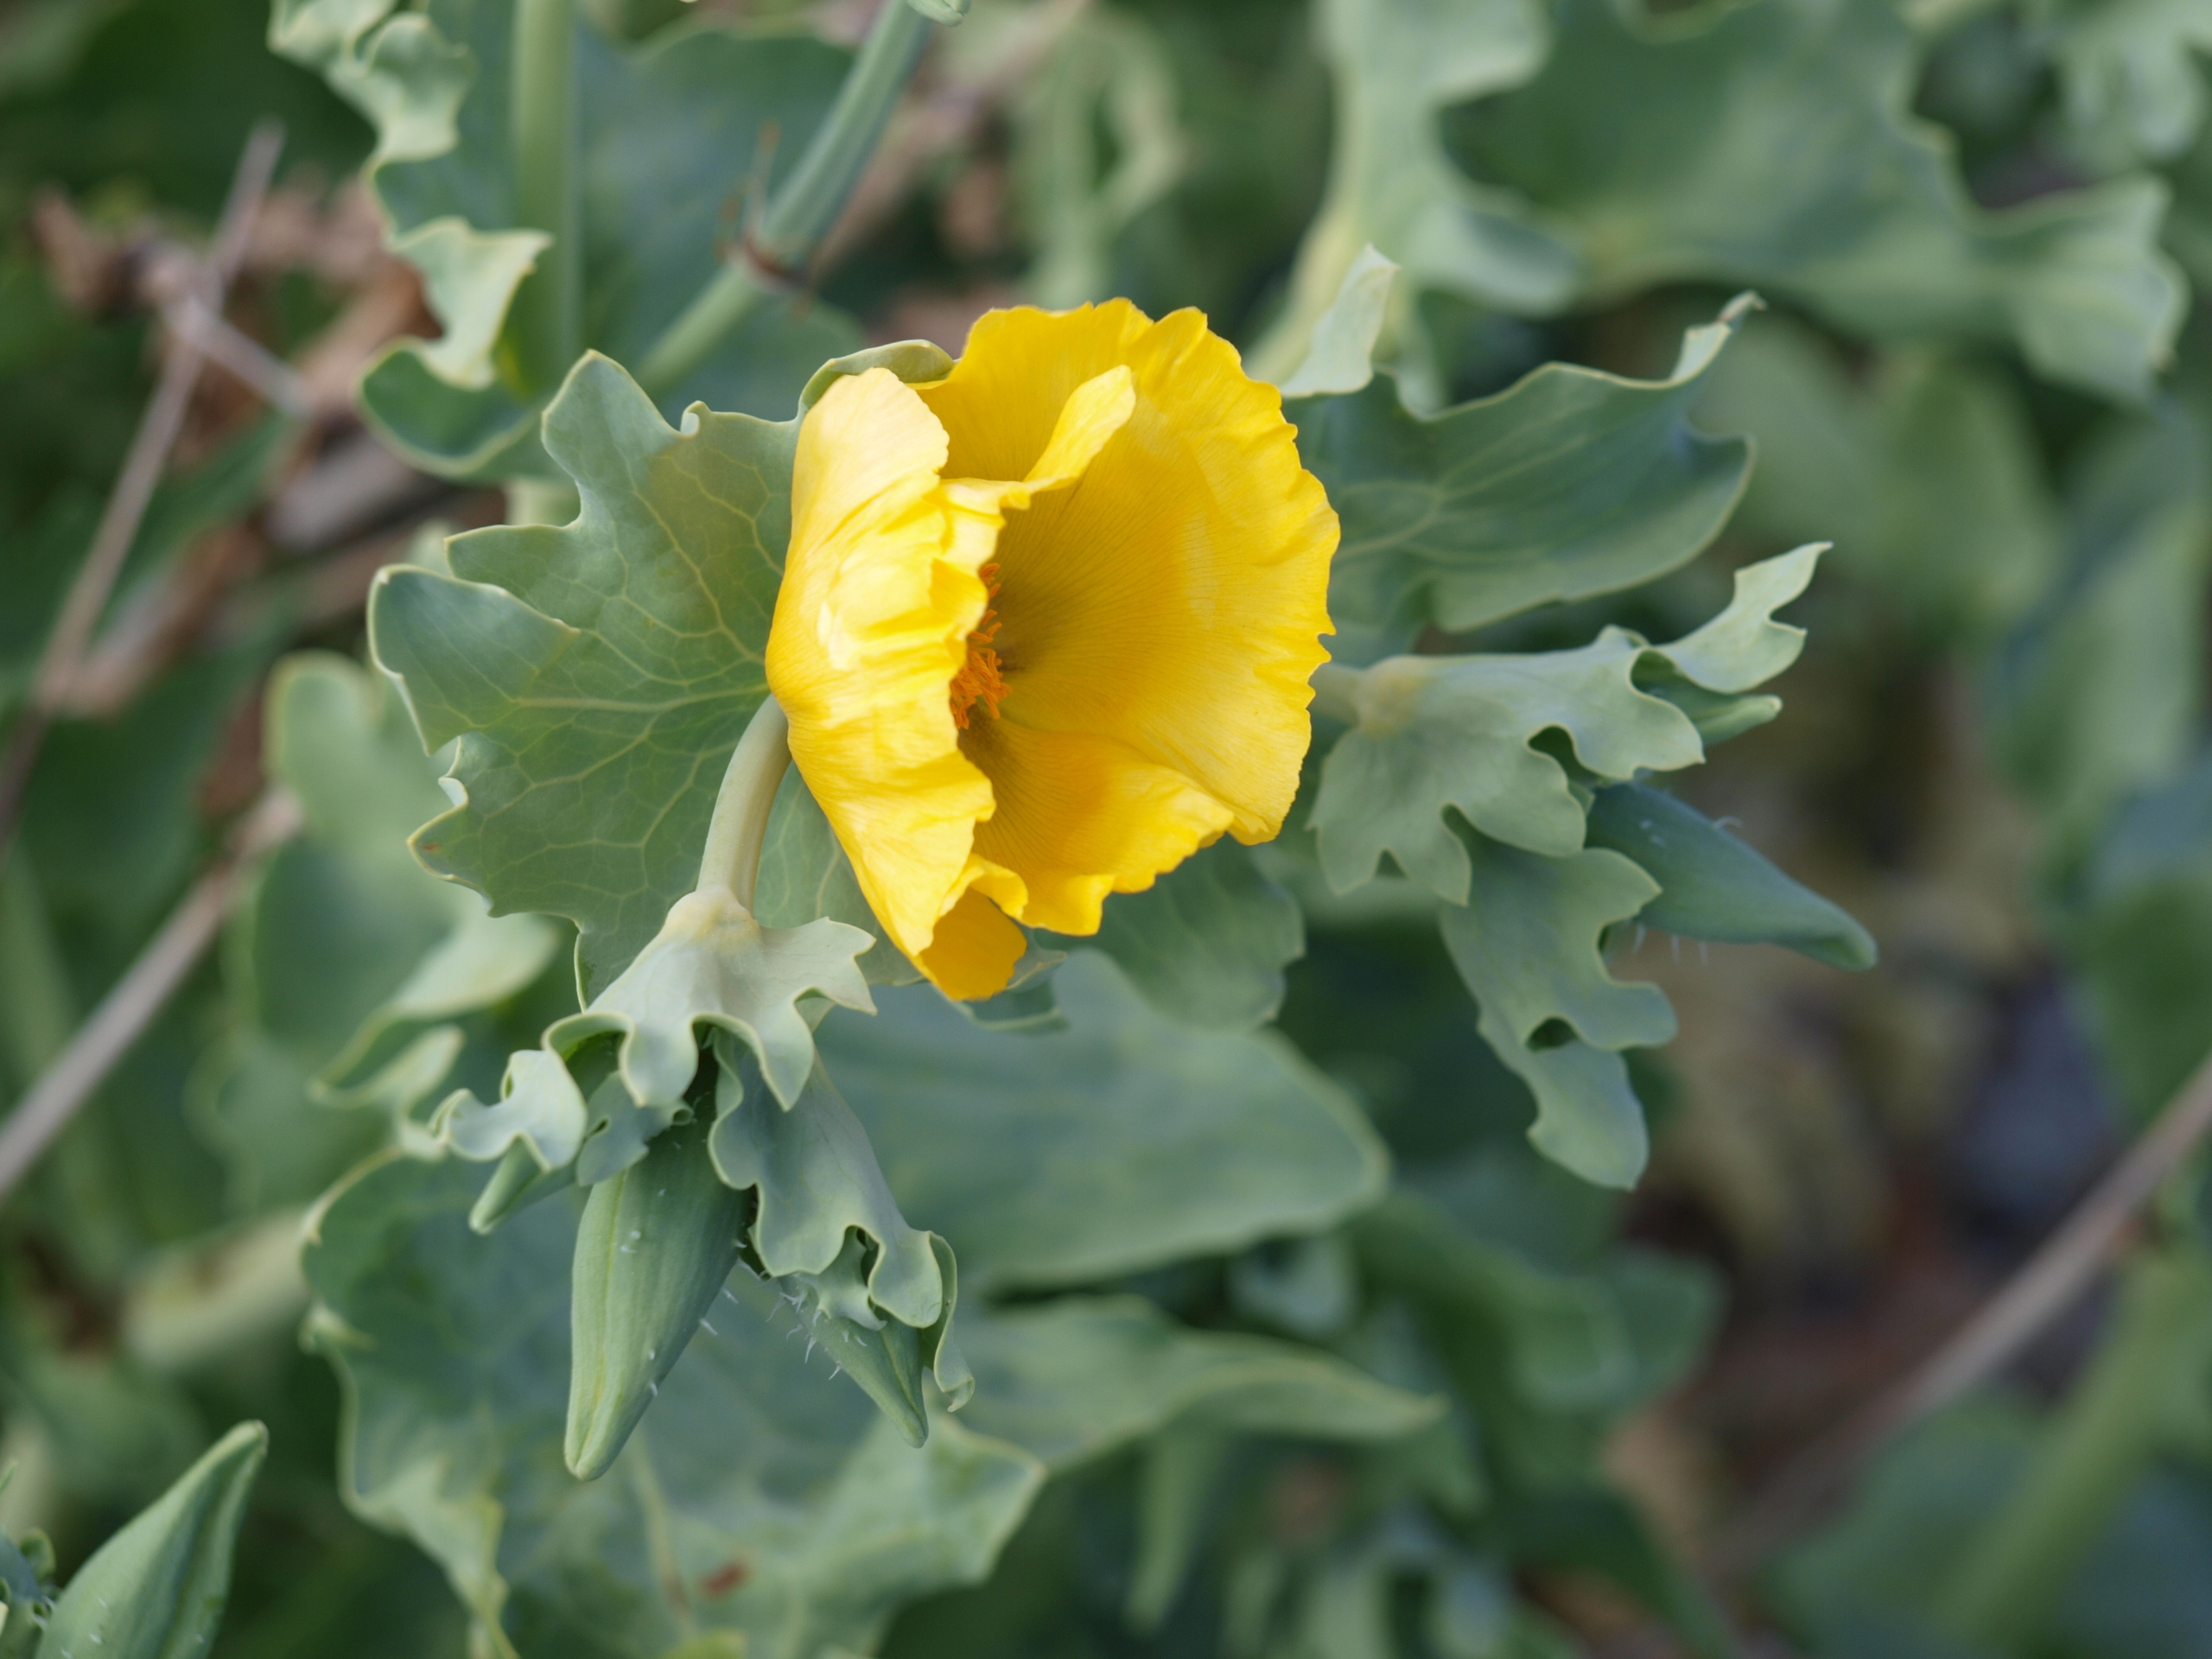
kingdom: Plantae
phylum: Tracheophyta
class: Magnoliopsida
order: Ranunculales
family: Papaveraceae
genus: Glaucium
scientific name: Glaucium flavum
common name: Hornskulpe
